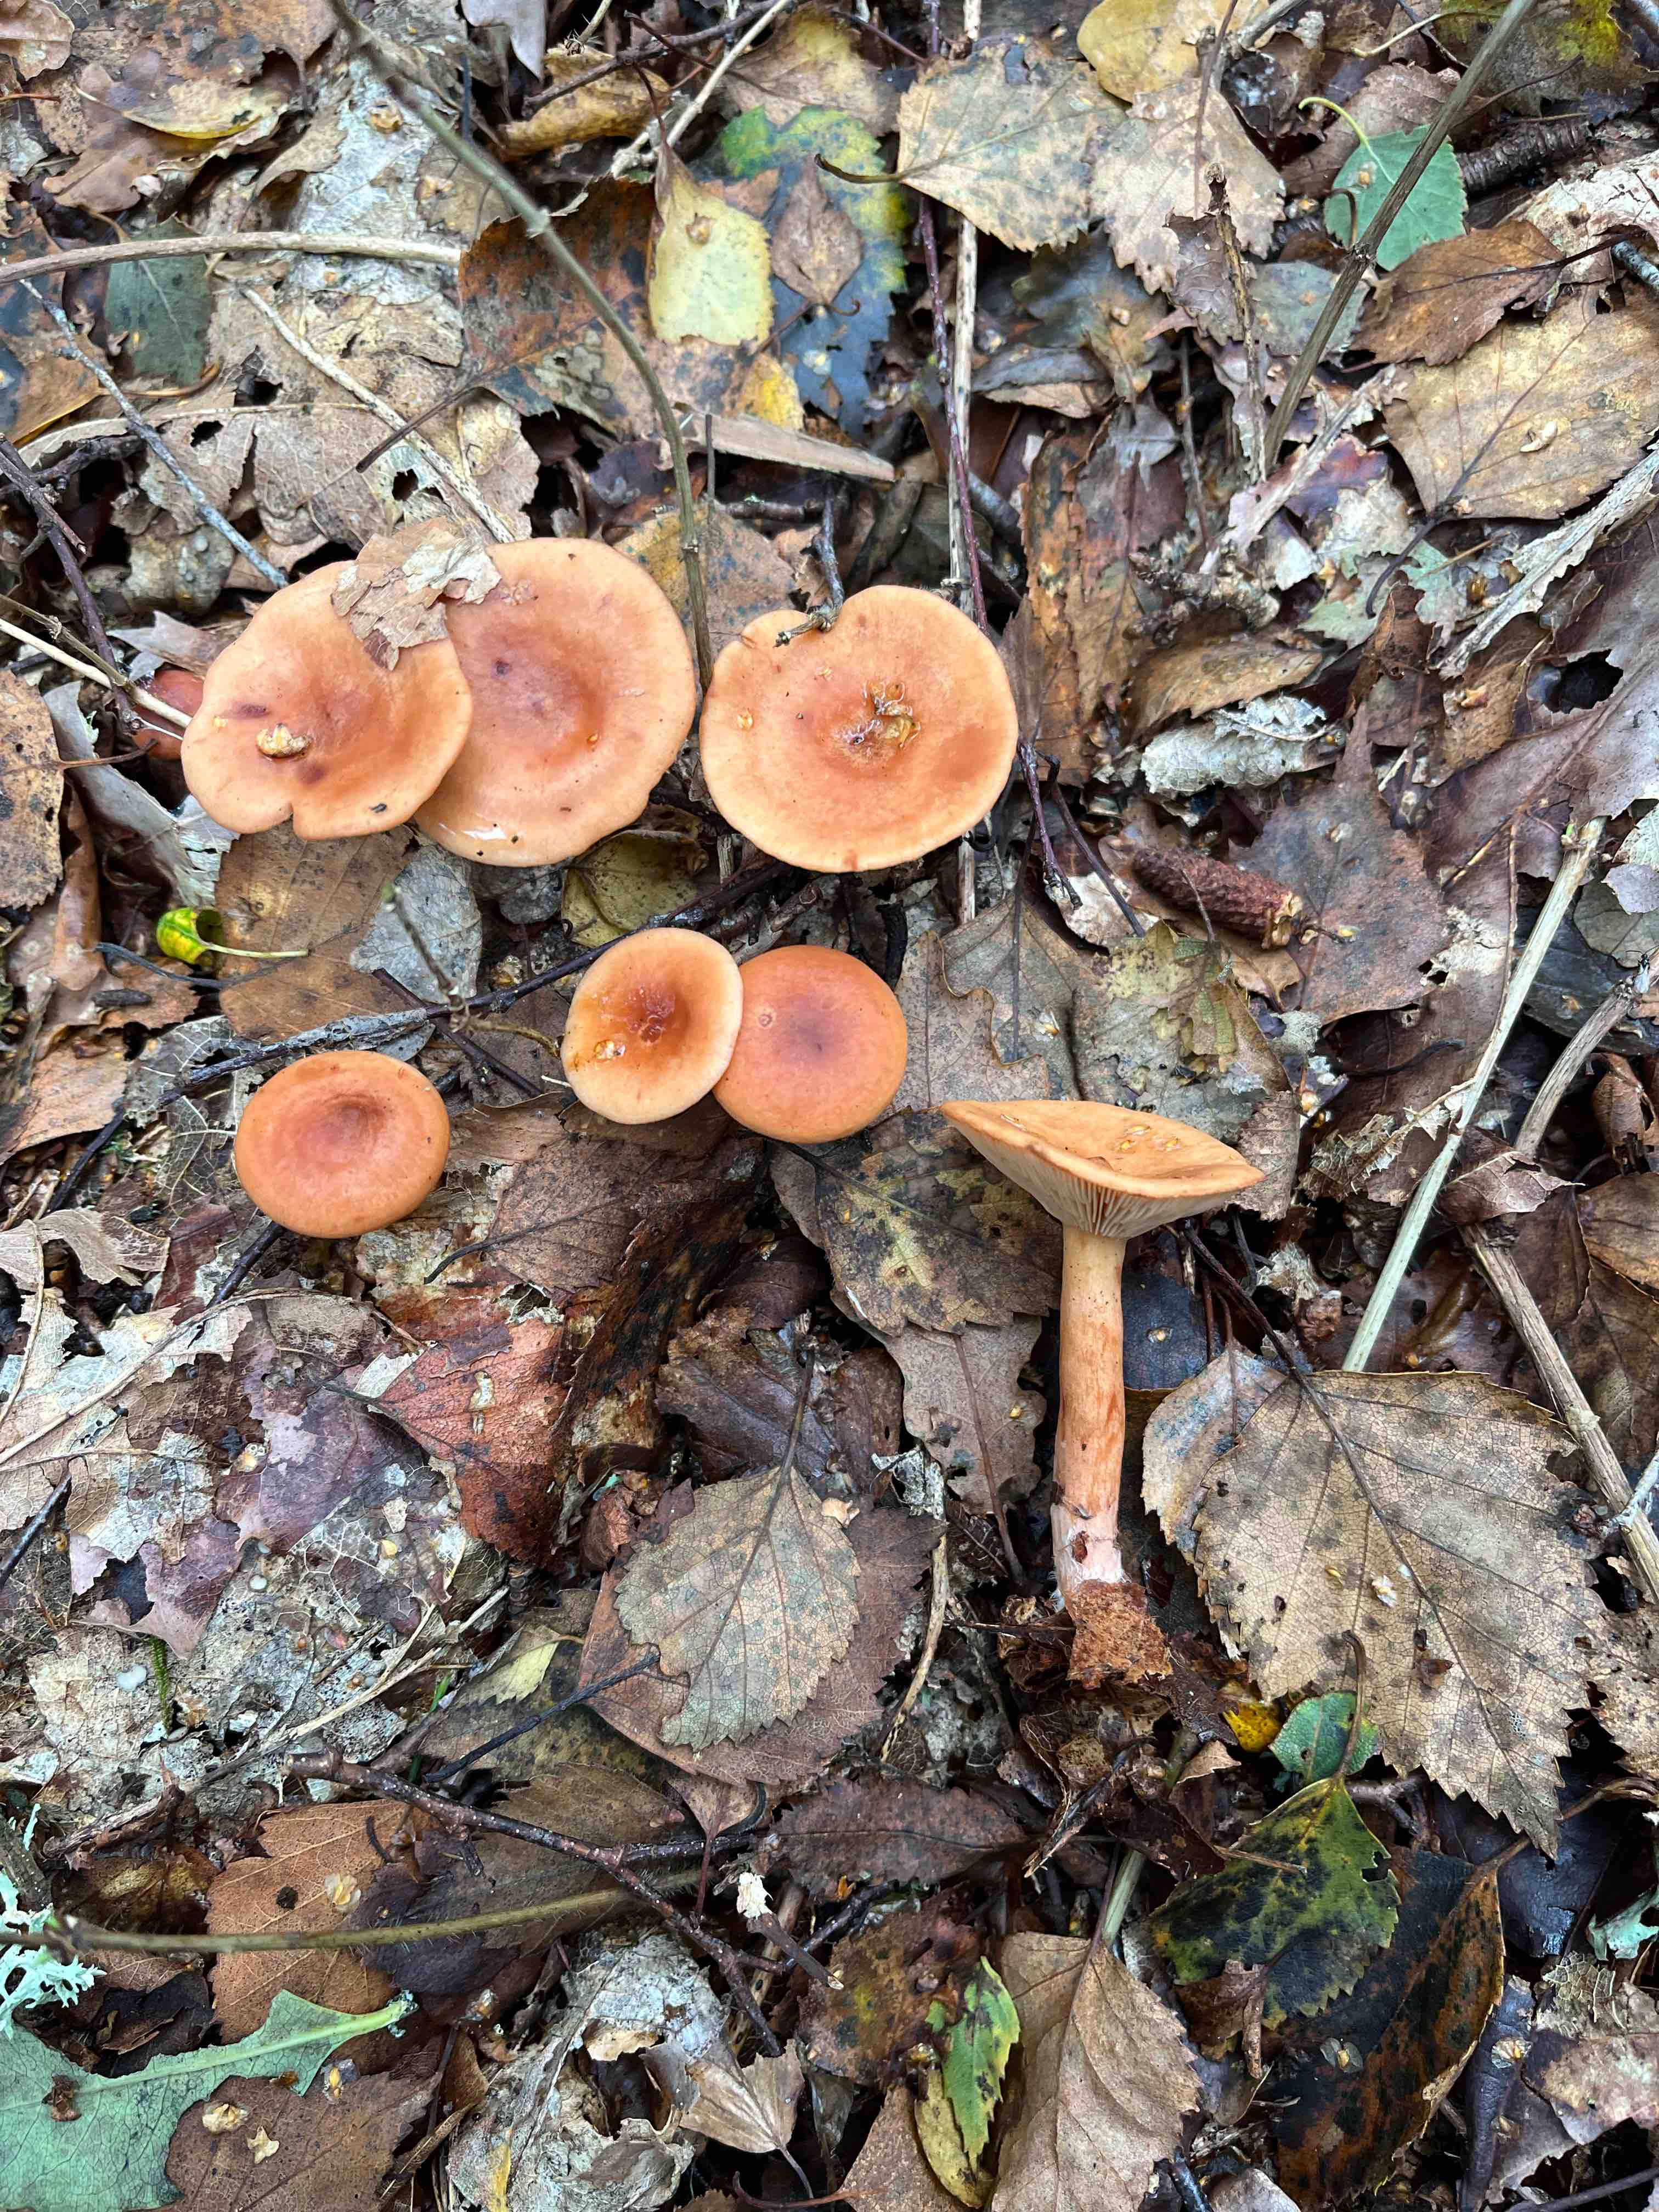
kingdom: Fungi
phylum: Basidiomycota
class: Agaricomycetes
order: Russulales
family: Russulaceae
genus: Lactarius
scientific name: Lactarius tabidus
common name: rynket mælkehat
